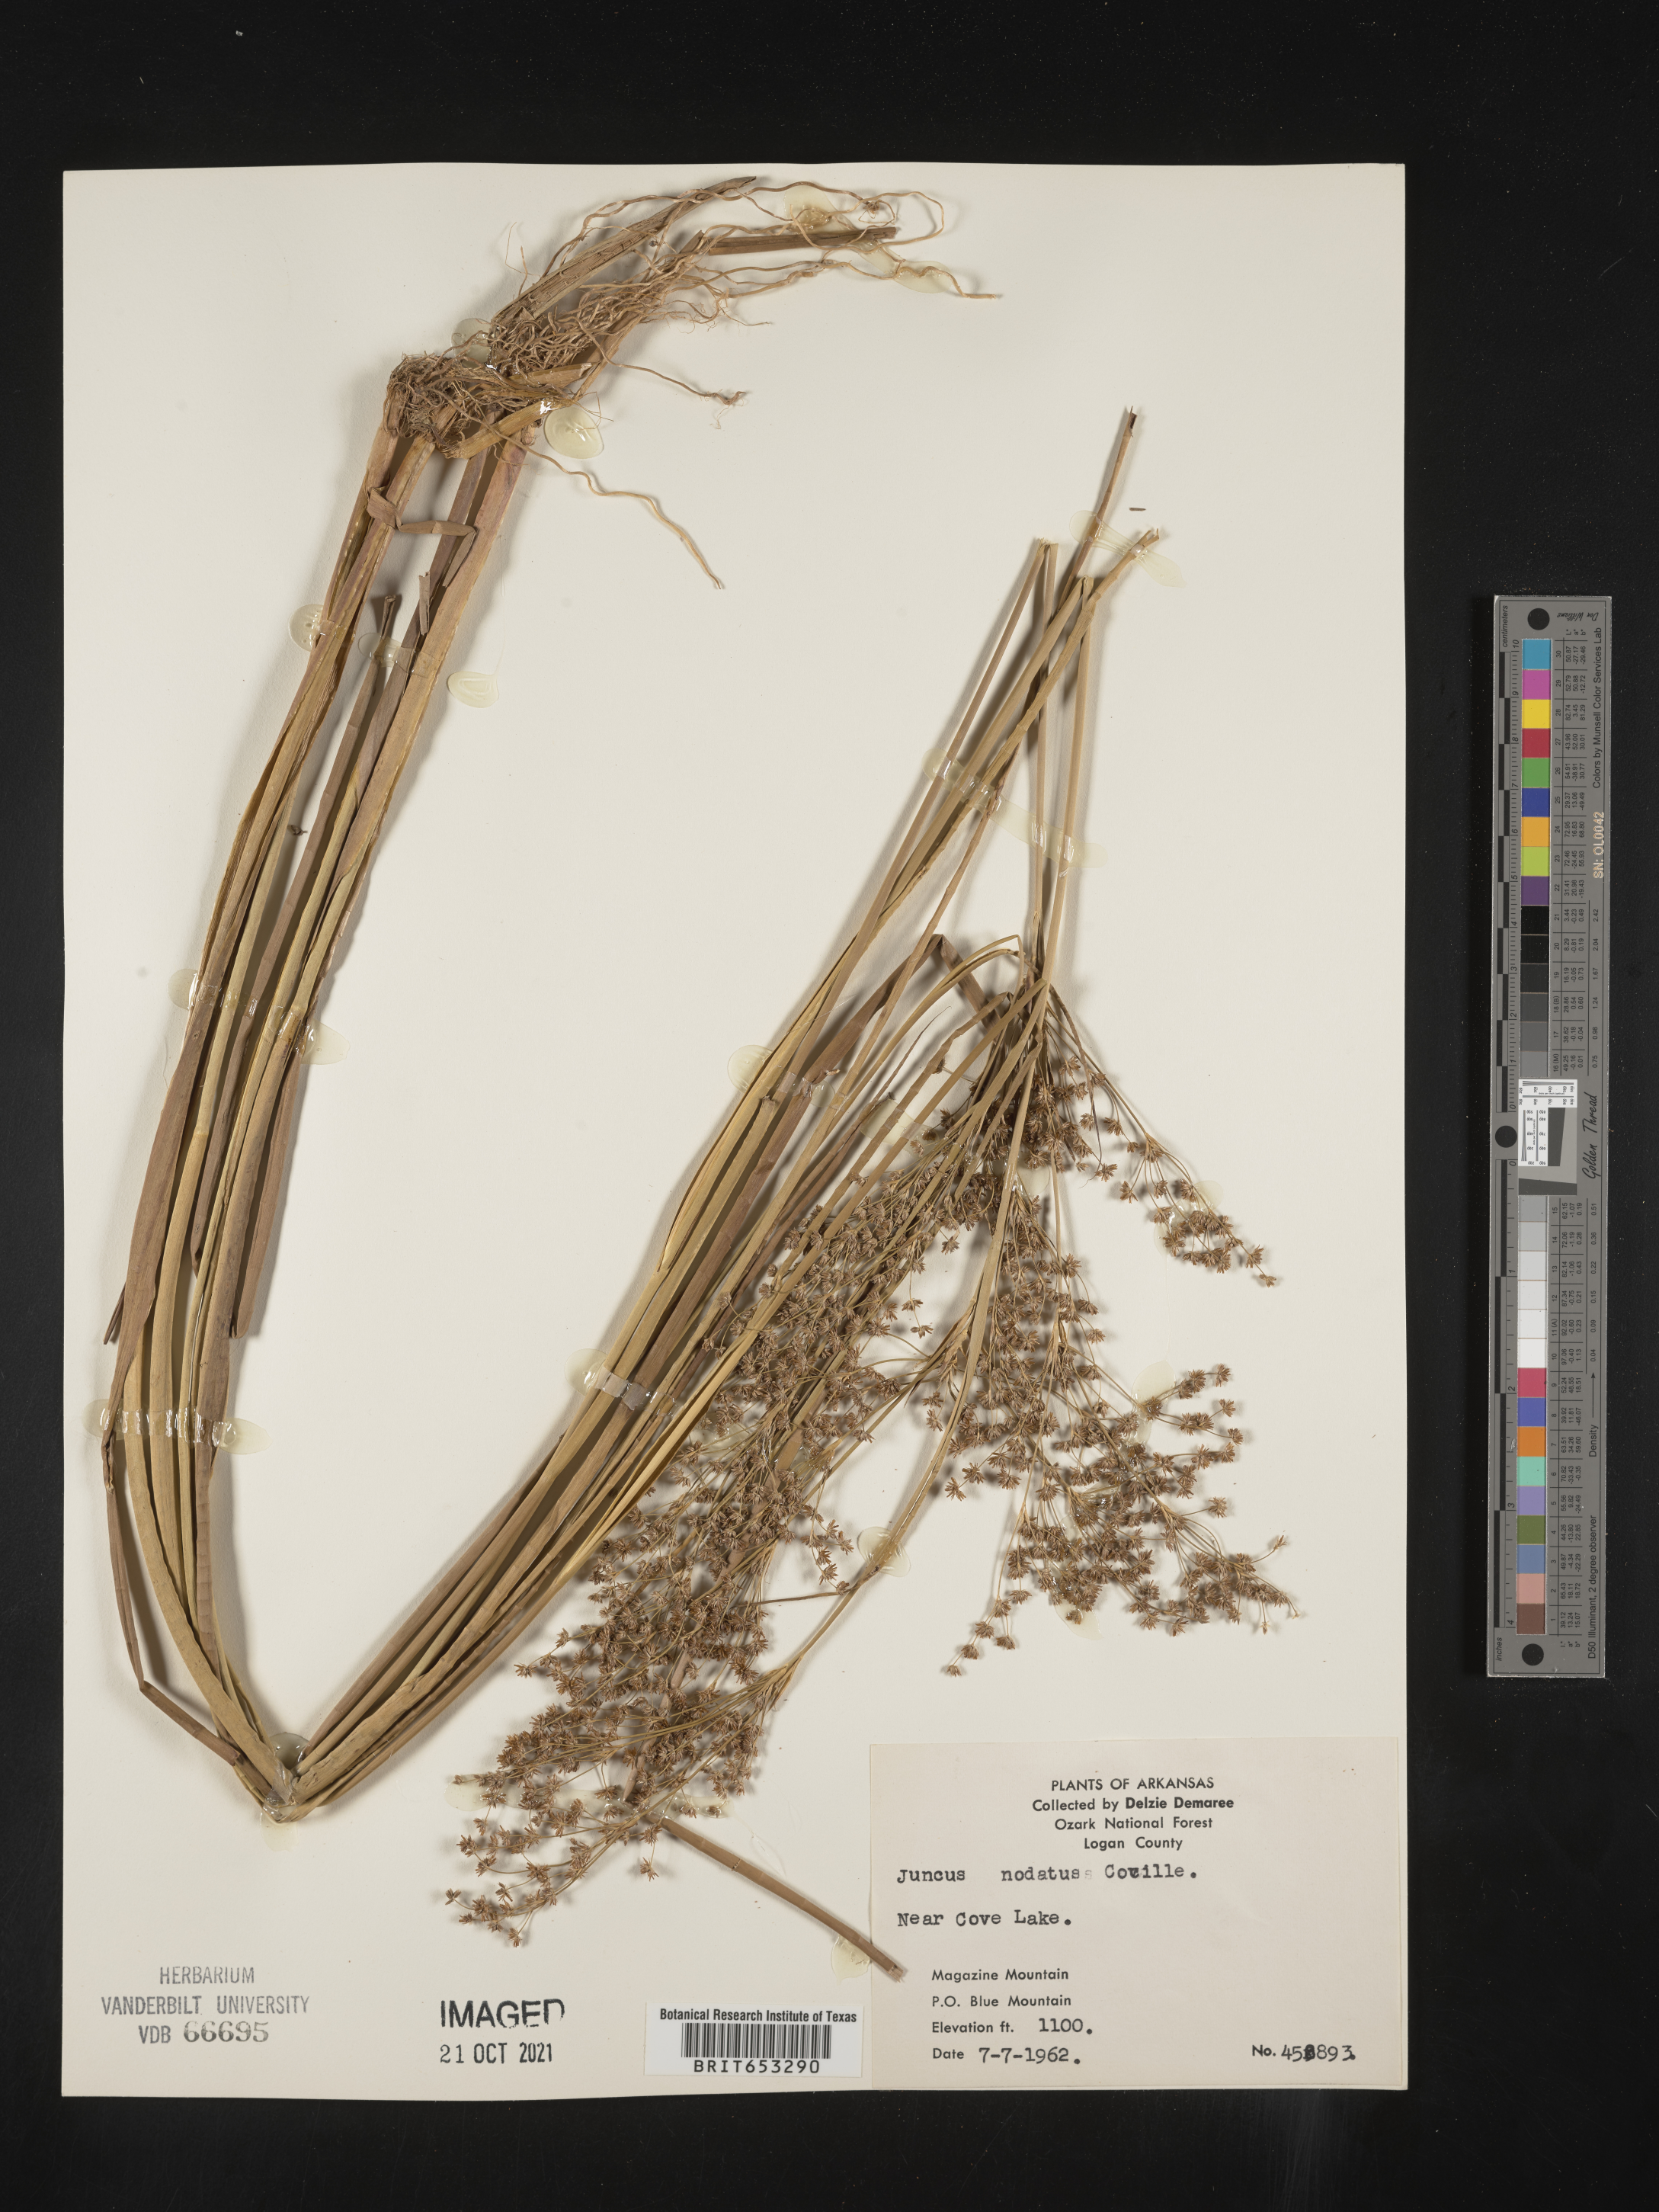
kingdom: Plantae
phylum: Tracheophyta
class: Liliopsida
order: Poales
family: Juncaceae
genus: Juncus
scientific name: Juncus nodatus
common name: Stout rush
